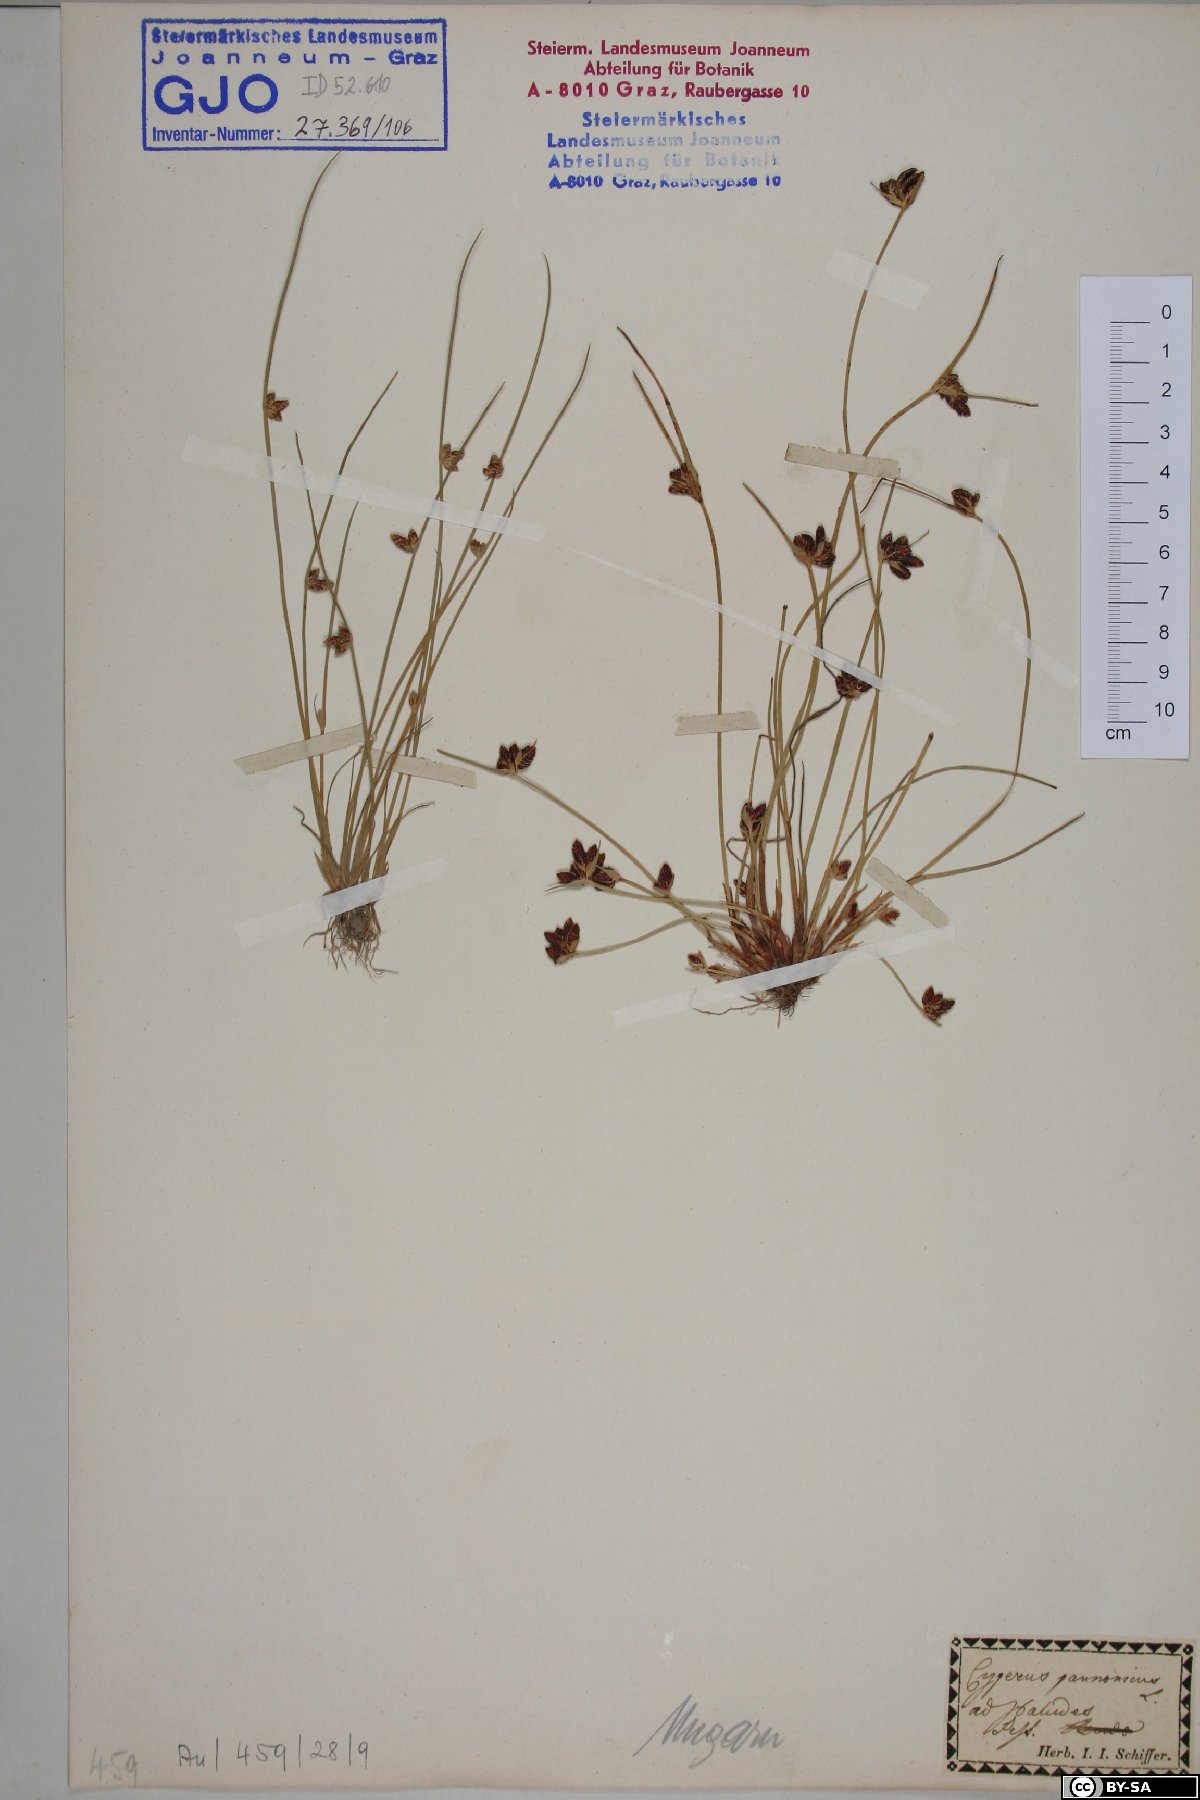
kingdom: Plantae
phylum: Tracheophyta
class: Liliopsida
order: Poales
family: Cyperaceae
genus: Cyperus
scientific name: Cyperus pannonicus
